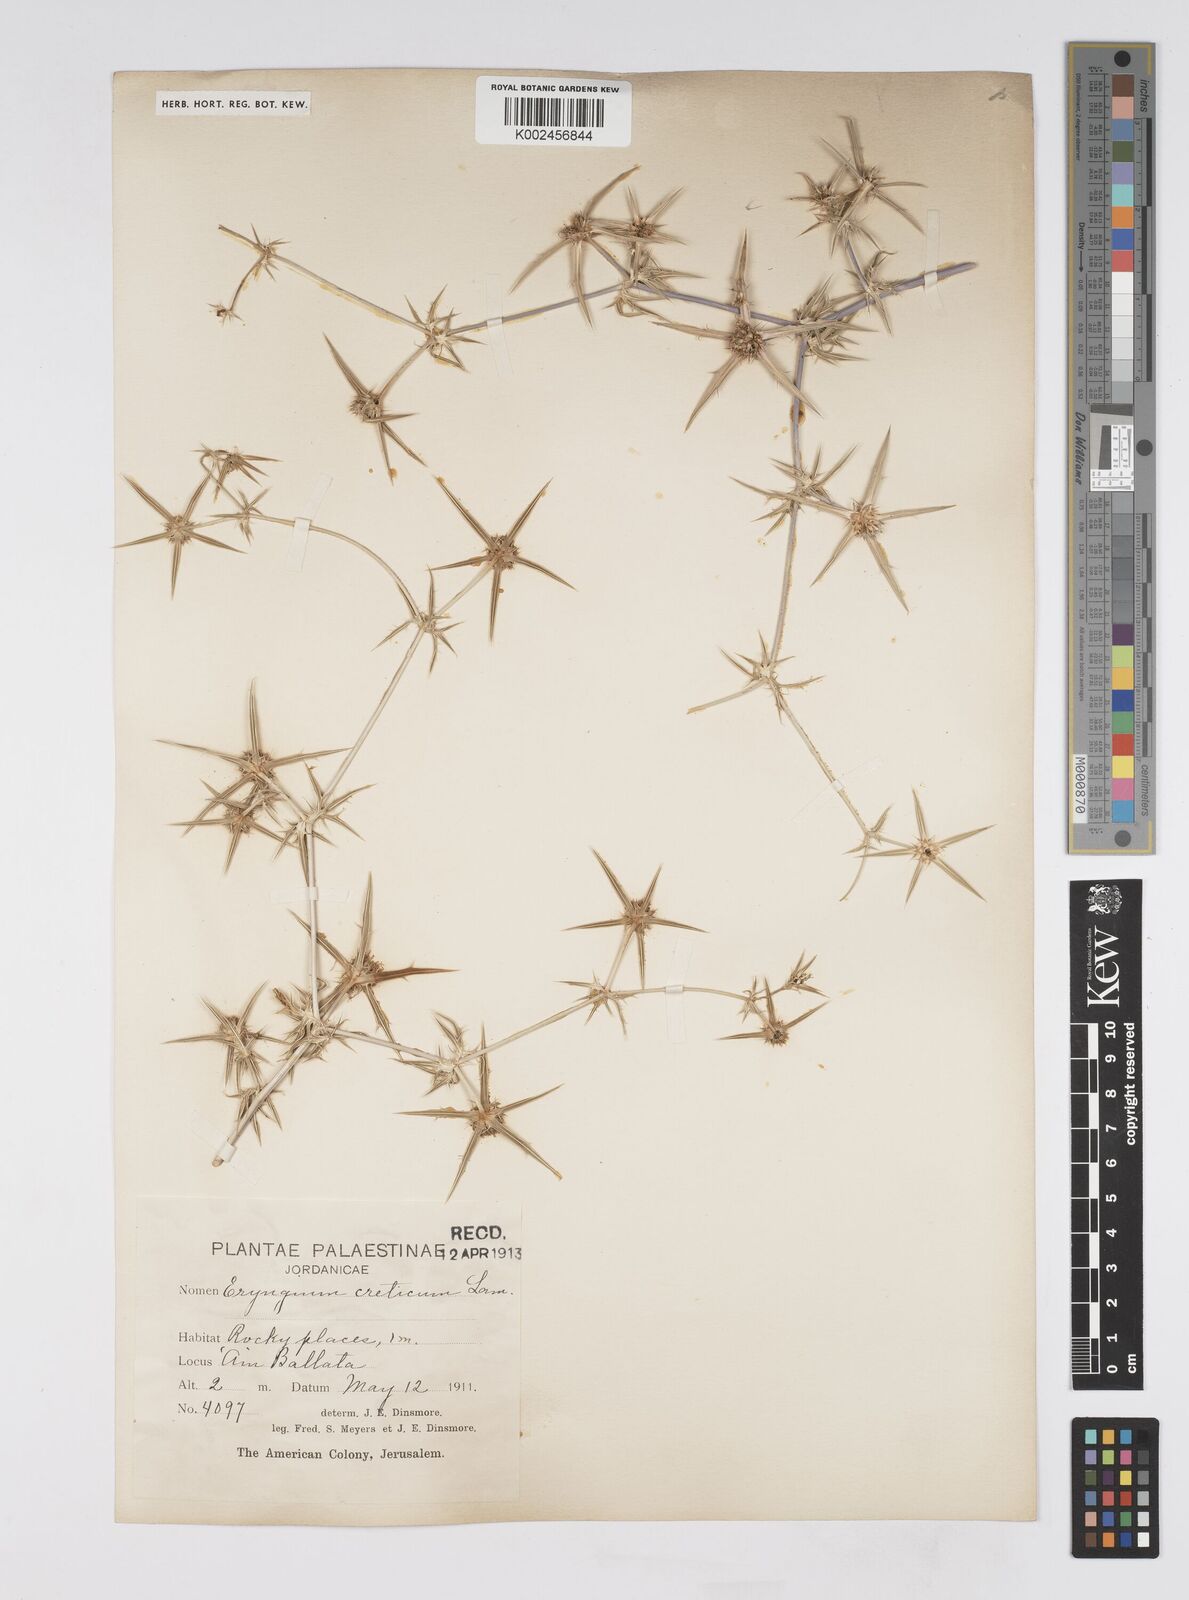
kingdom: Plantae
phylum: Tracheophyta
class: Magnoliopsida
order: Apiales
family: Apiaceae
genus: Eryngium
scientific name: Eryngium creticum
